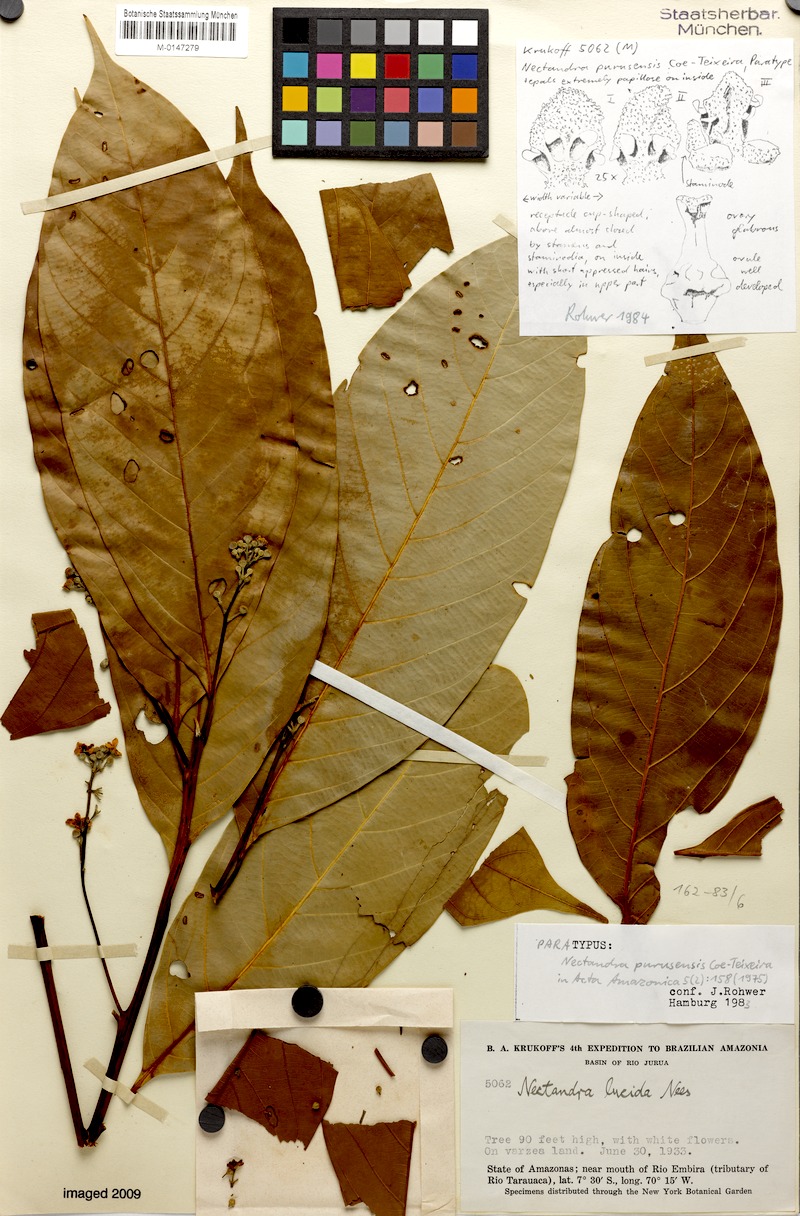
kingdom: Plantae
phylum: Tracheophyta
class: Magnoliopsida
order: Laurales
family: Lauraceae
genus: Nectandra
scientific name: Nectandra pulverulenta
